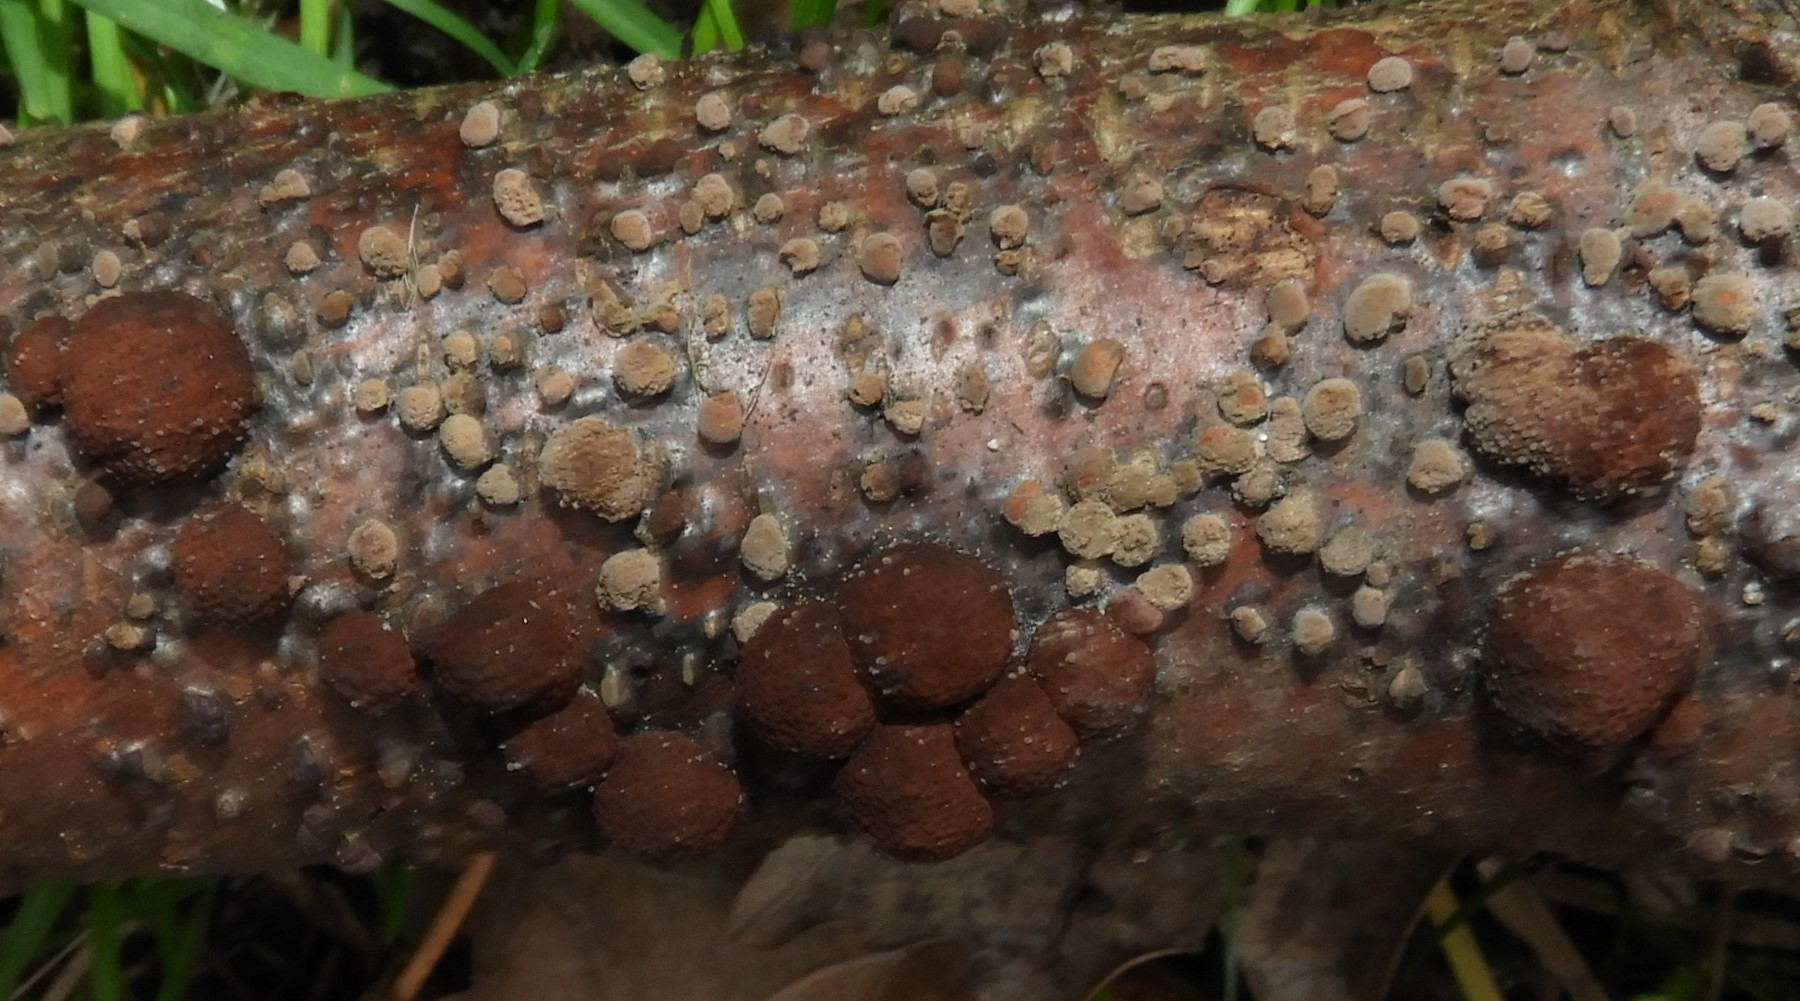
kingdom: Fungi
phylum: Ascomycota
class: Sordariomycetes
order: Xylariales
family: Hypoxylaceae
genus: Hypoxylon
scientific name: Hypoxylon fragiforme
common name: kuljordbær
